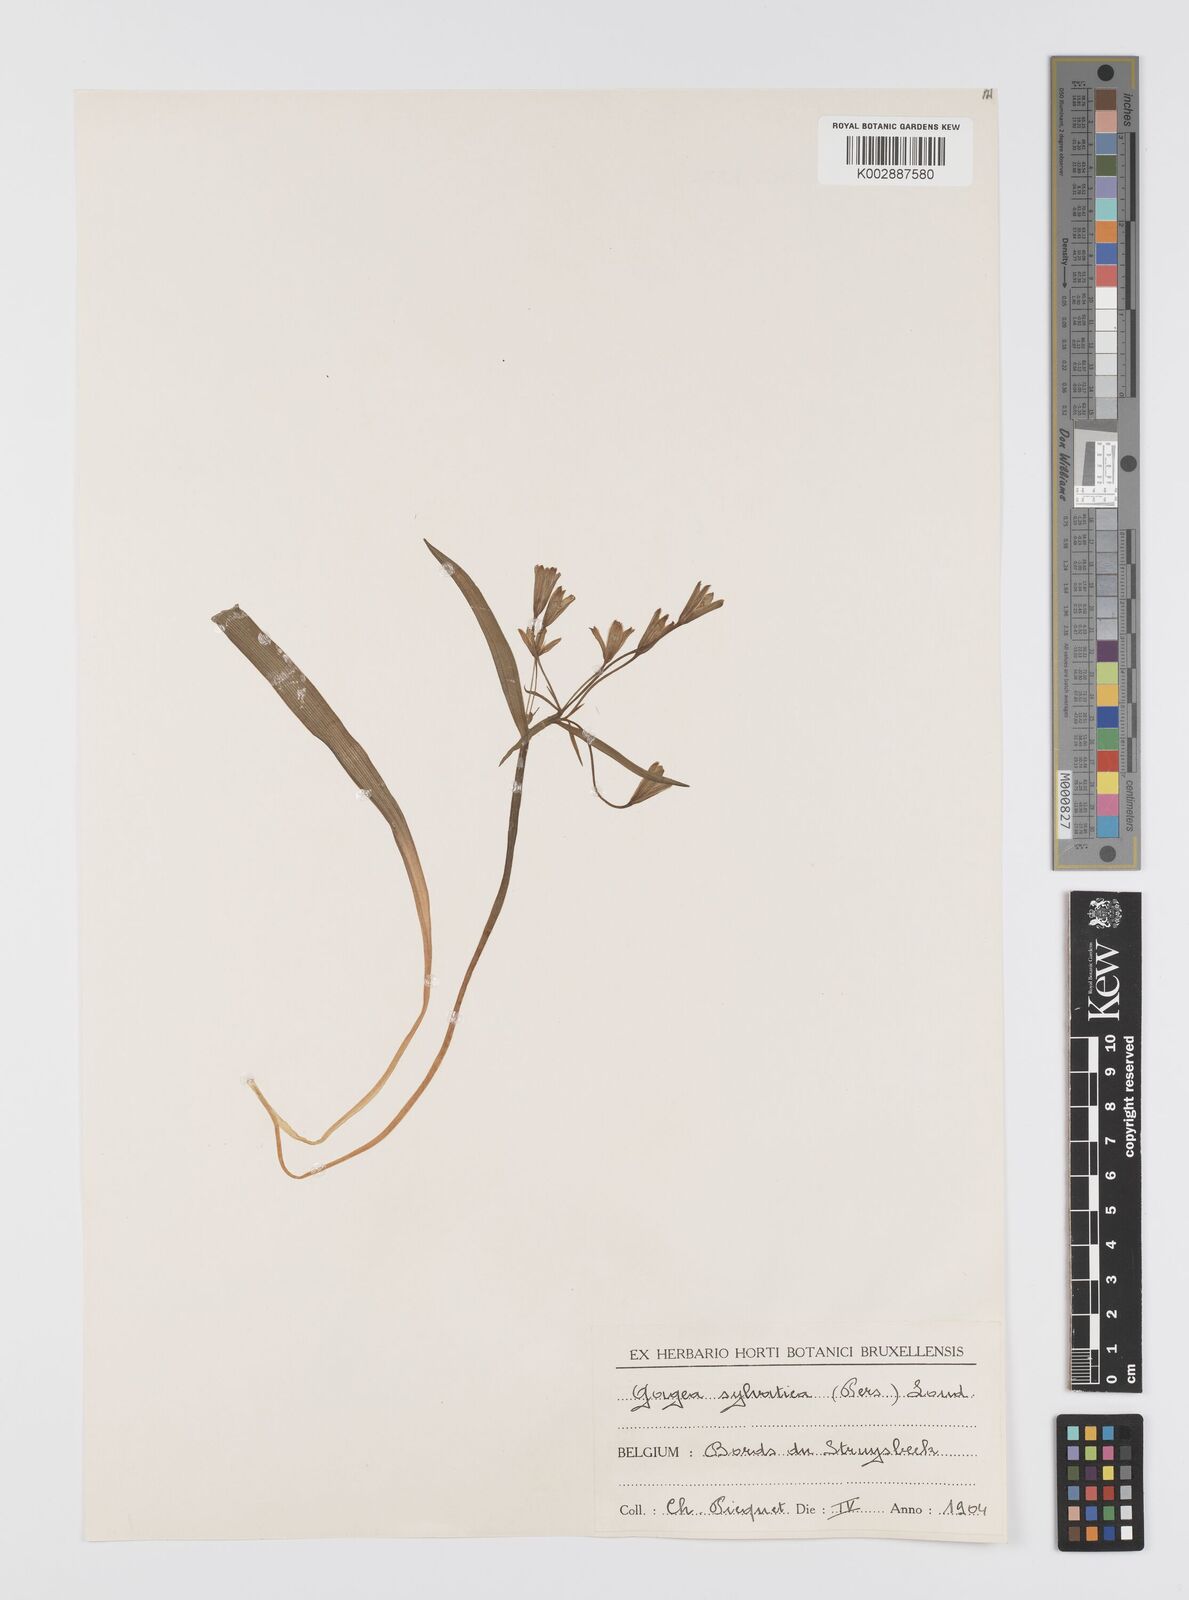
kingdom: Plantae
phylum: Tracheophyta
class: Liliopsida
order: Liliales
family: Liliaceae
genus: Gagea
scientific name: Gagea lutea
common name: Yellow star-of-bethlehem
